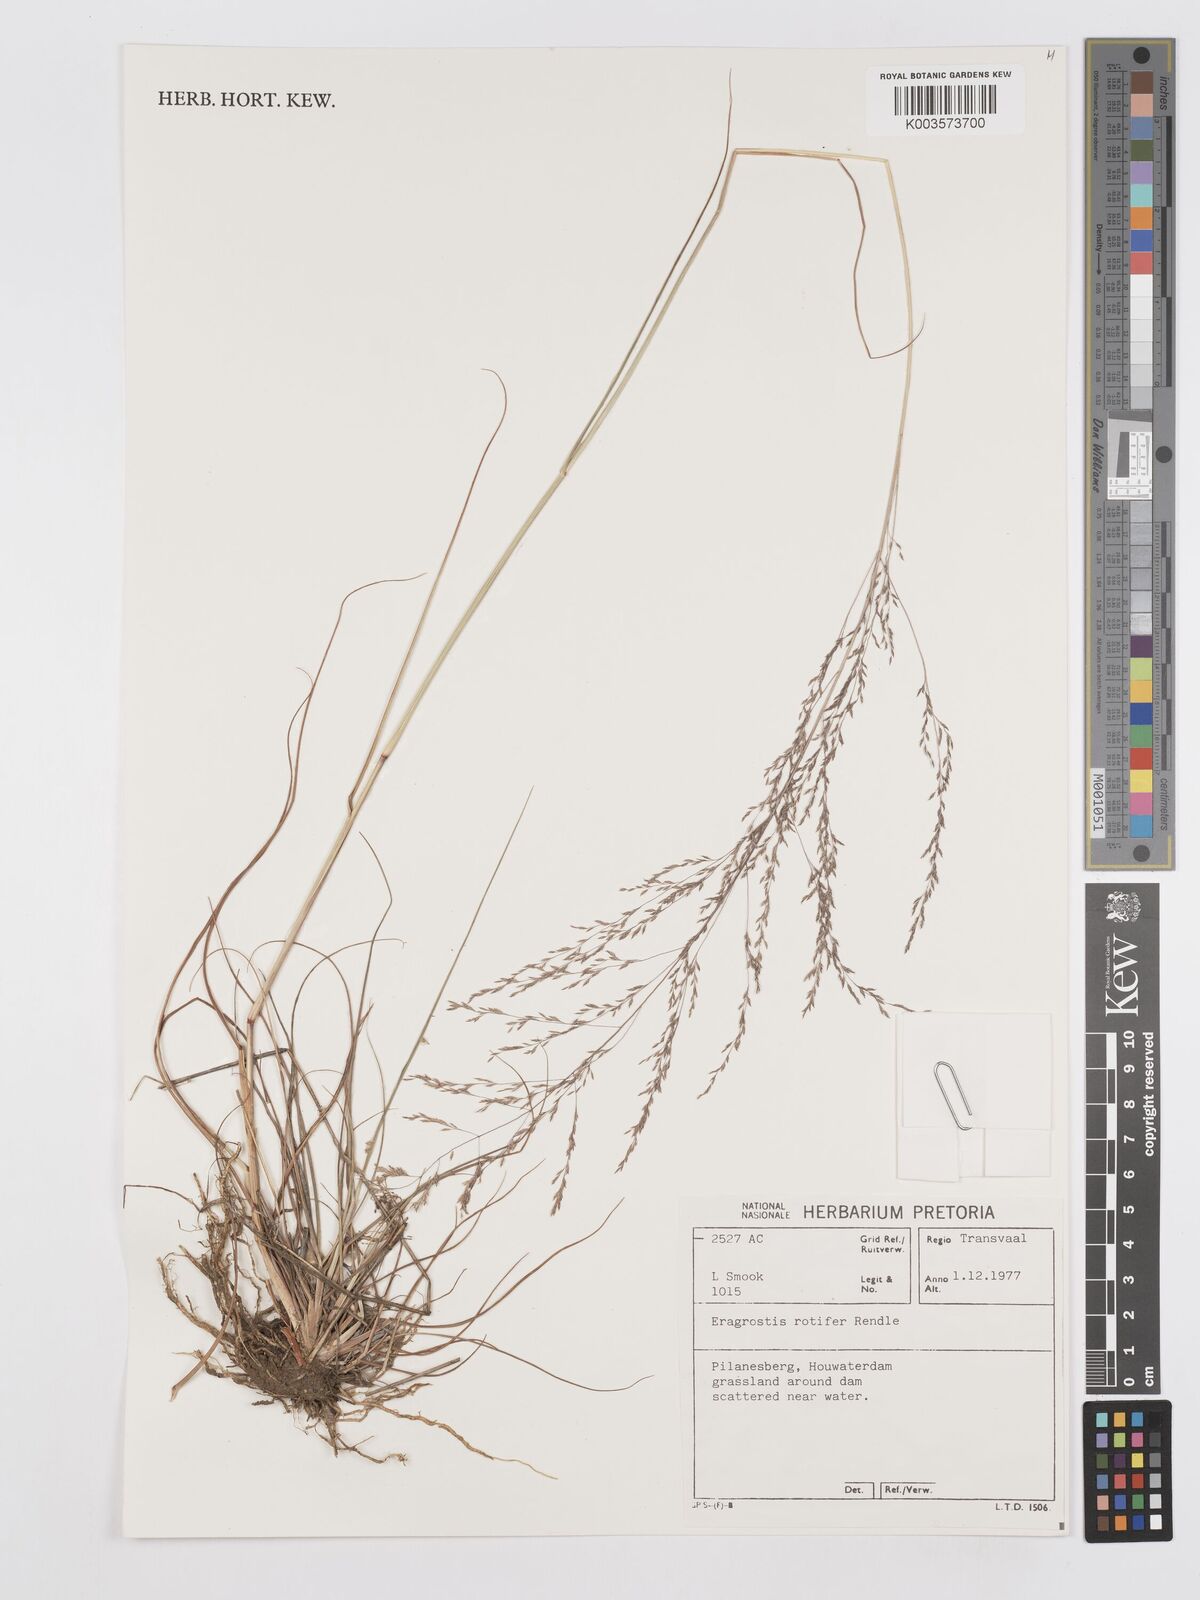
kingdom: Plantae
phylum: Tracheophyta
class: Liliopsida
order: Poales
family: Poaceae
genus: Eragrostis
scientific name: Eragrostis rotifer
